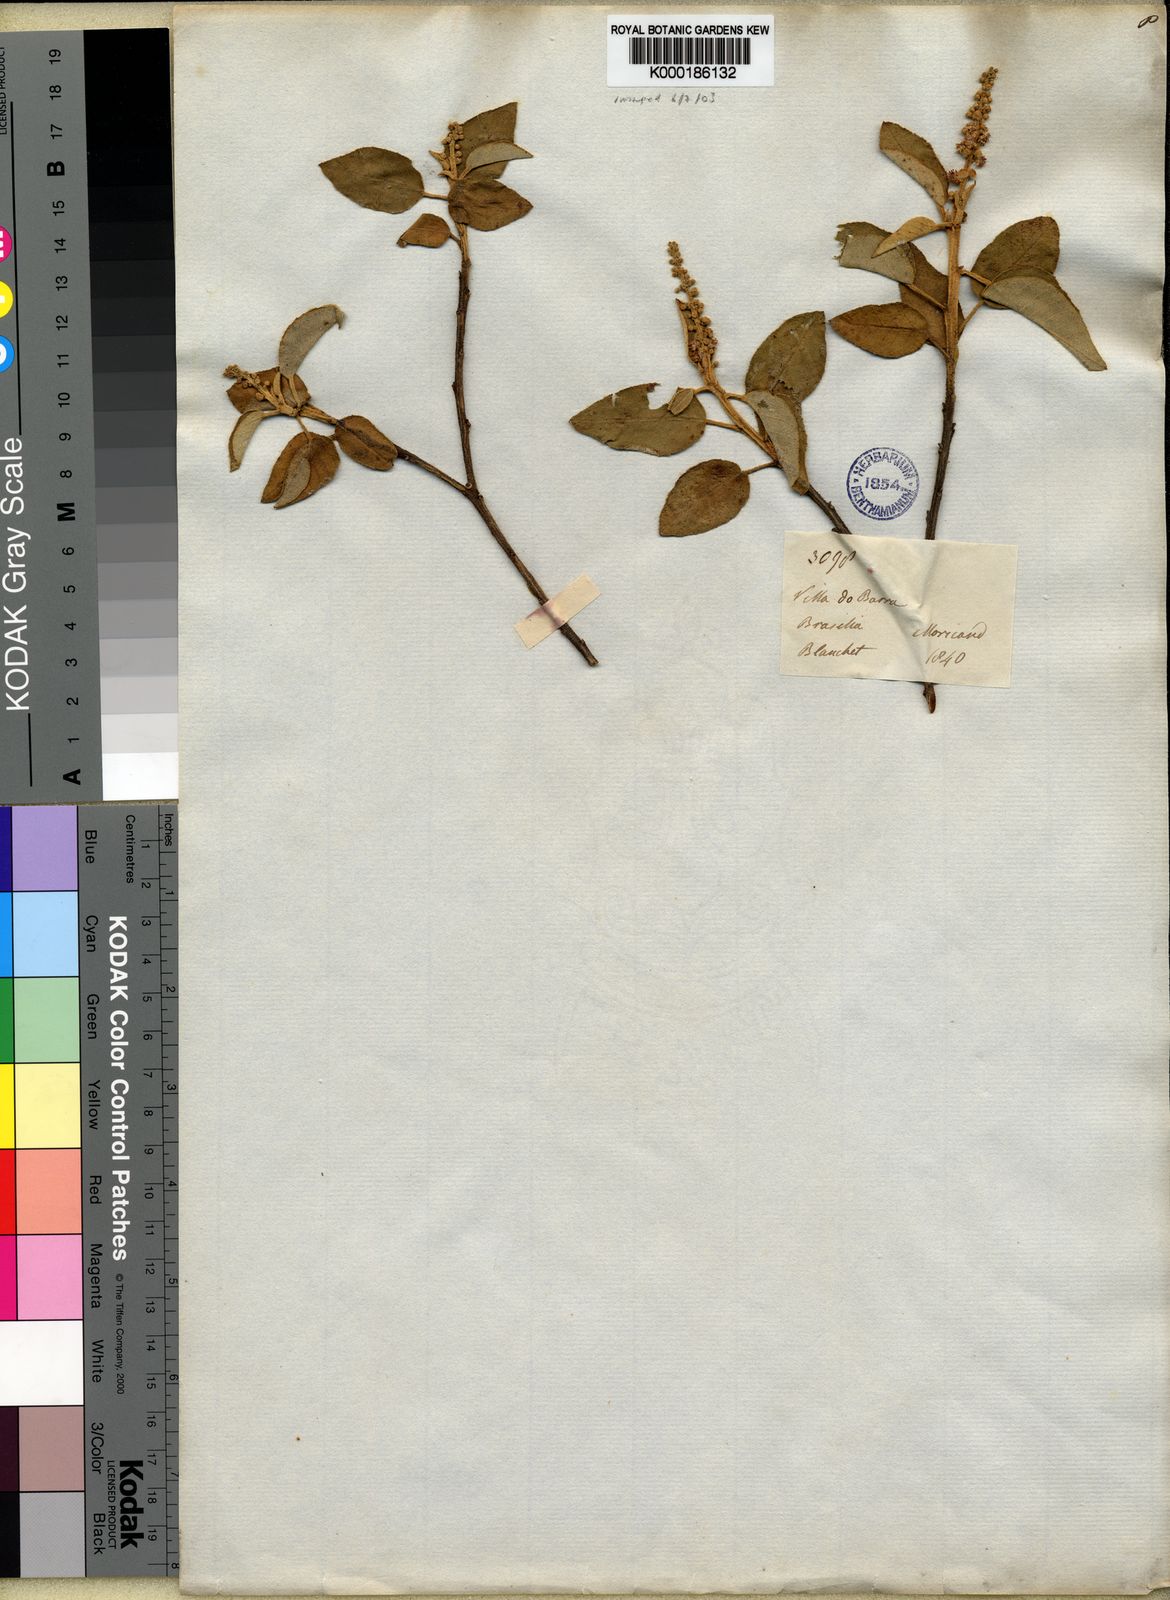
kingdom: Plantae
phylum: Tracheophyta
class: Magnoliopsida
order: Malpighiales
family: Euphorbiaceae
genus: Croton
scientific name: Croton
